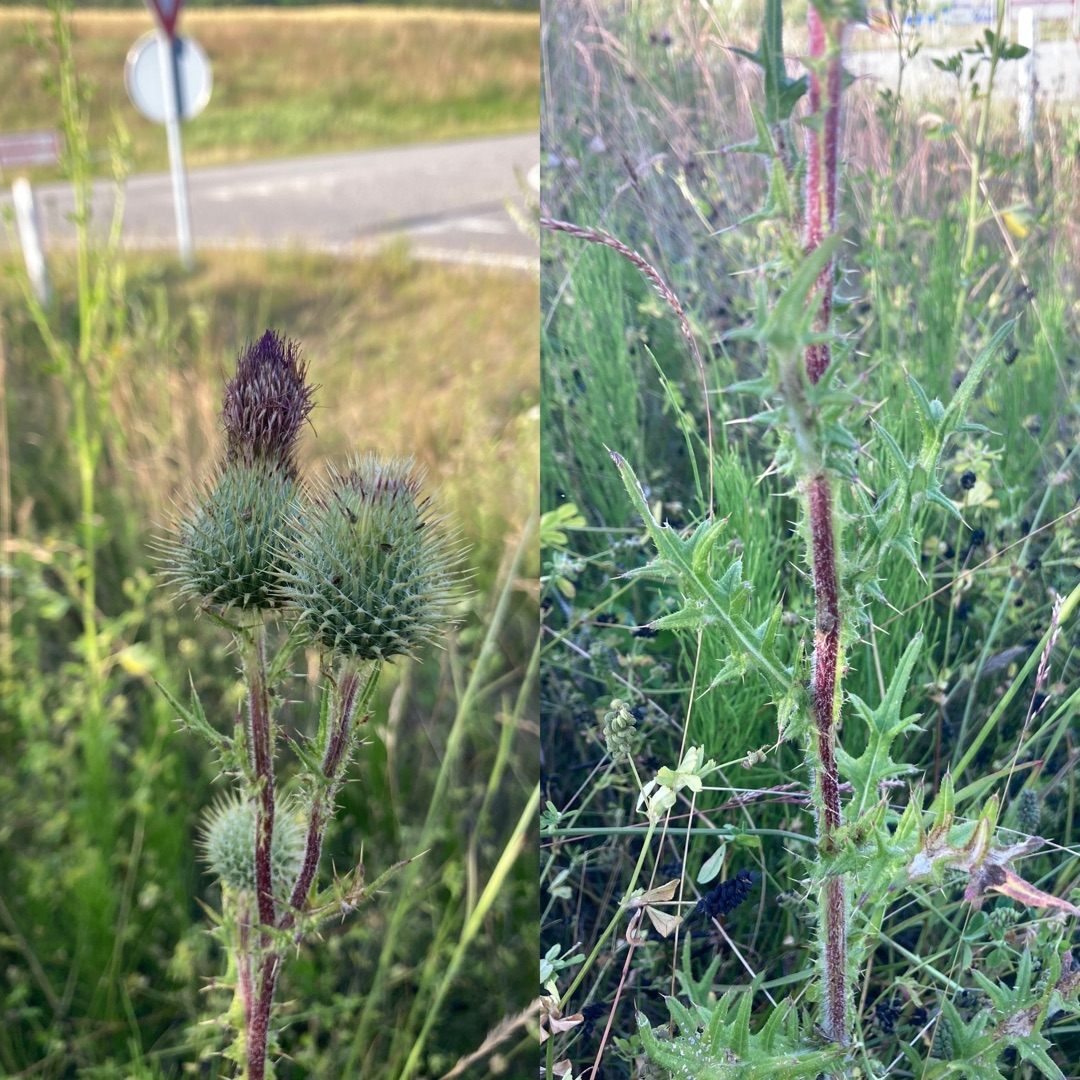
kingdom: Plantae
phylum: Tracheophyta
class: Magnoliopsida
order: Asterales
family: Asteraceae
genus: Cirsium
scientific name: Cirsium vulgare
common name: Horse-tidsel
